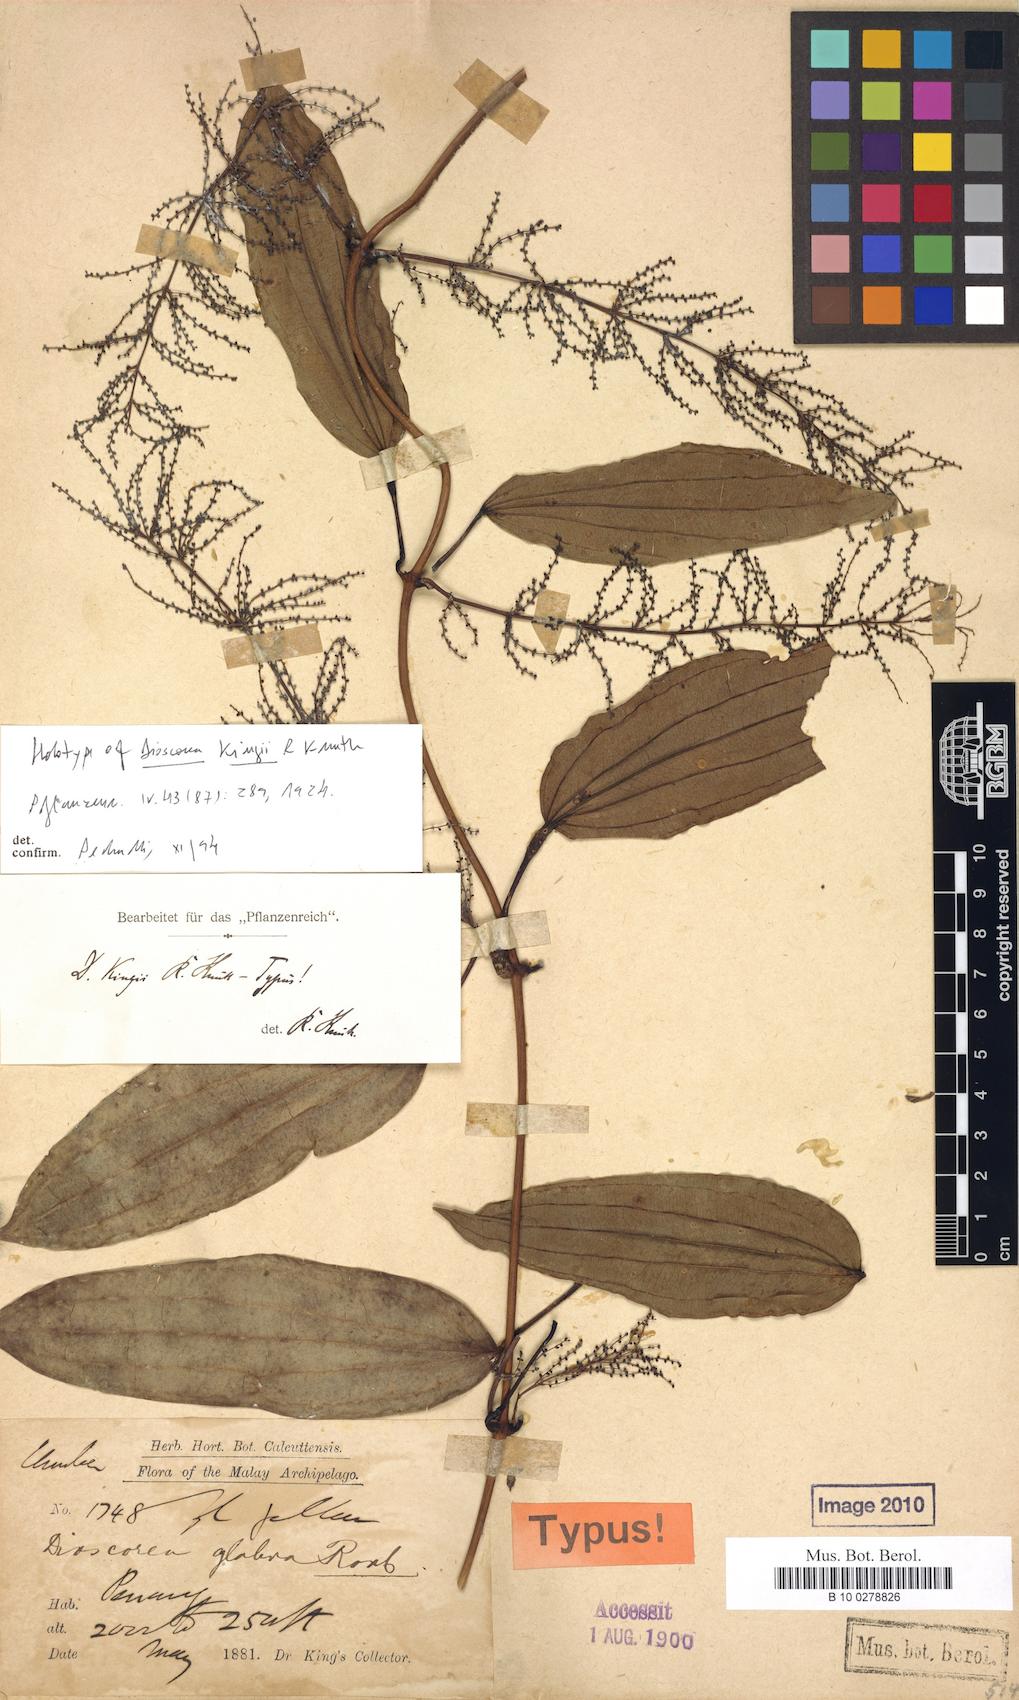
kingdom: Plantae
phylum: Tracheophyta
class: Liliopsida
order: Dioscoreales
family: Dioscoreaceae
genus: Dioscorea
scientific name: Dioscorea kingii
